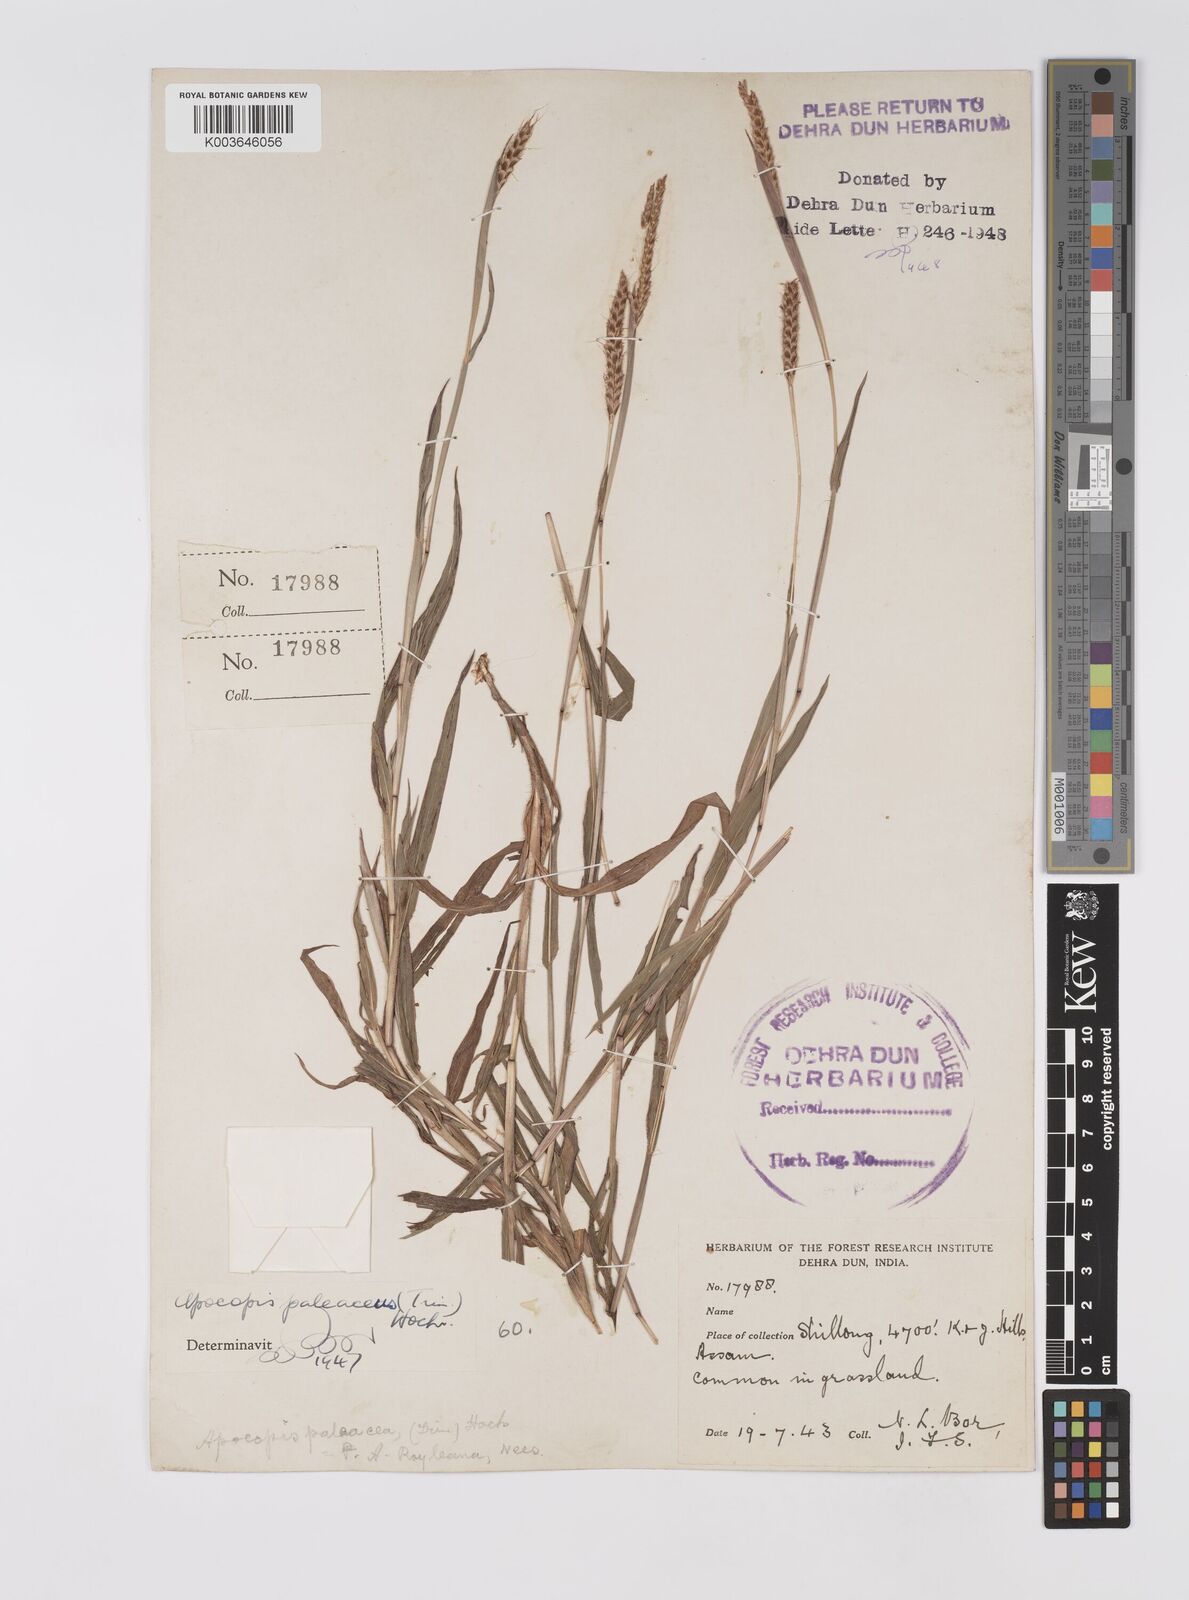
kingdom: Plantae
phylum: Tracheophyta
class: Liliopsida
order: Poales
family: Poaceae
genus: Apocopis
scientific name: Apocopis paleaceus
